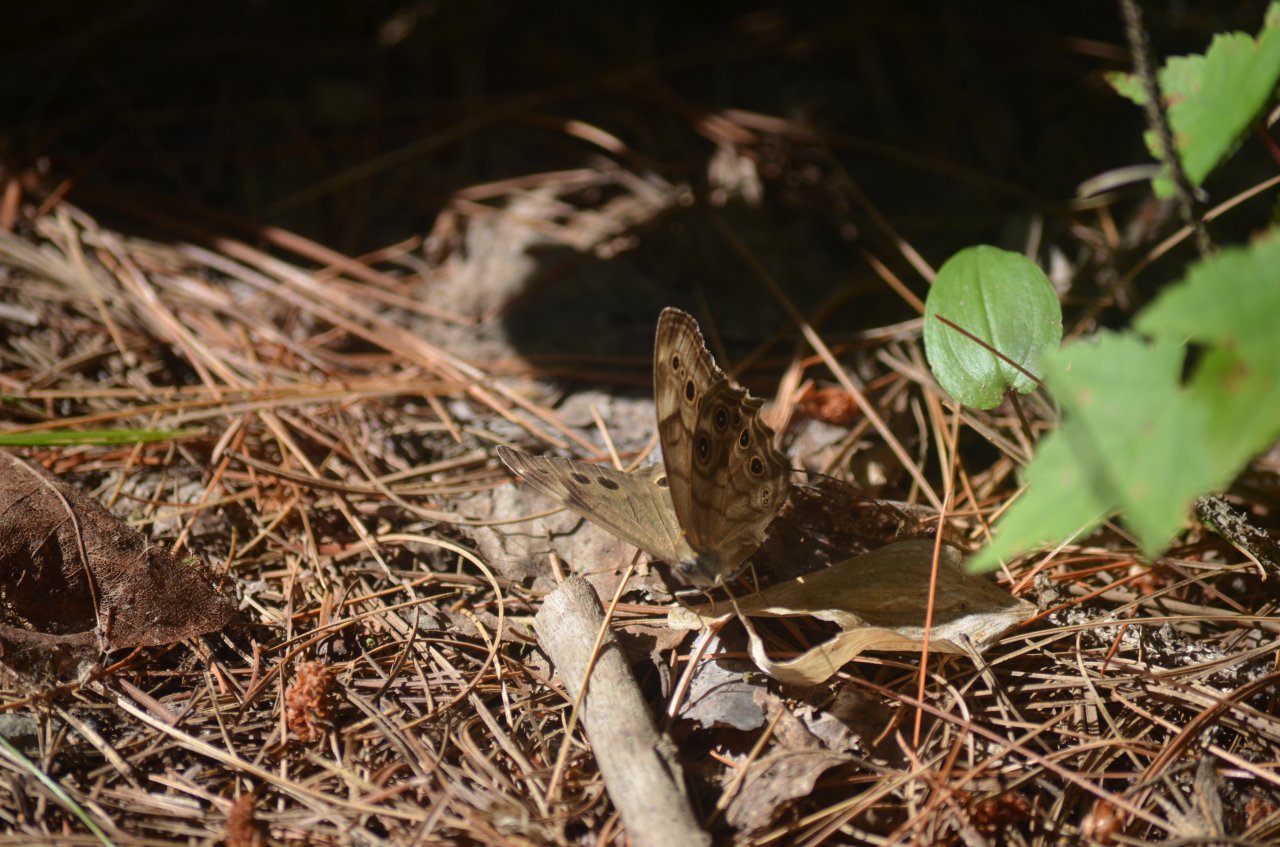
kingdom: Animalia
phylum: Arthropoda
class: Insecta
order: Lepidoptera
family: Nymphalidae
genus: Lethe
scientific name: Lethe anthedon
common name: Northern Pearly-Eye
